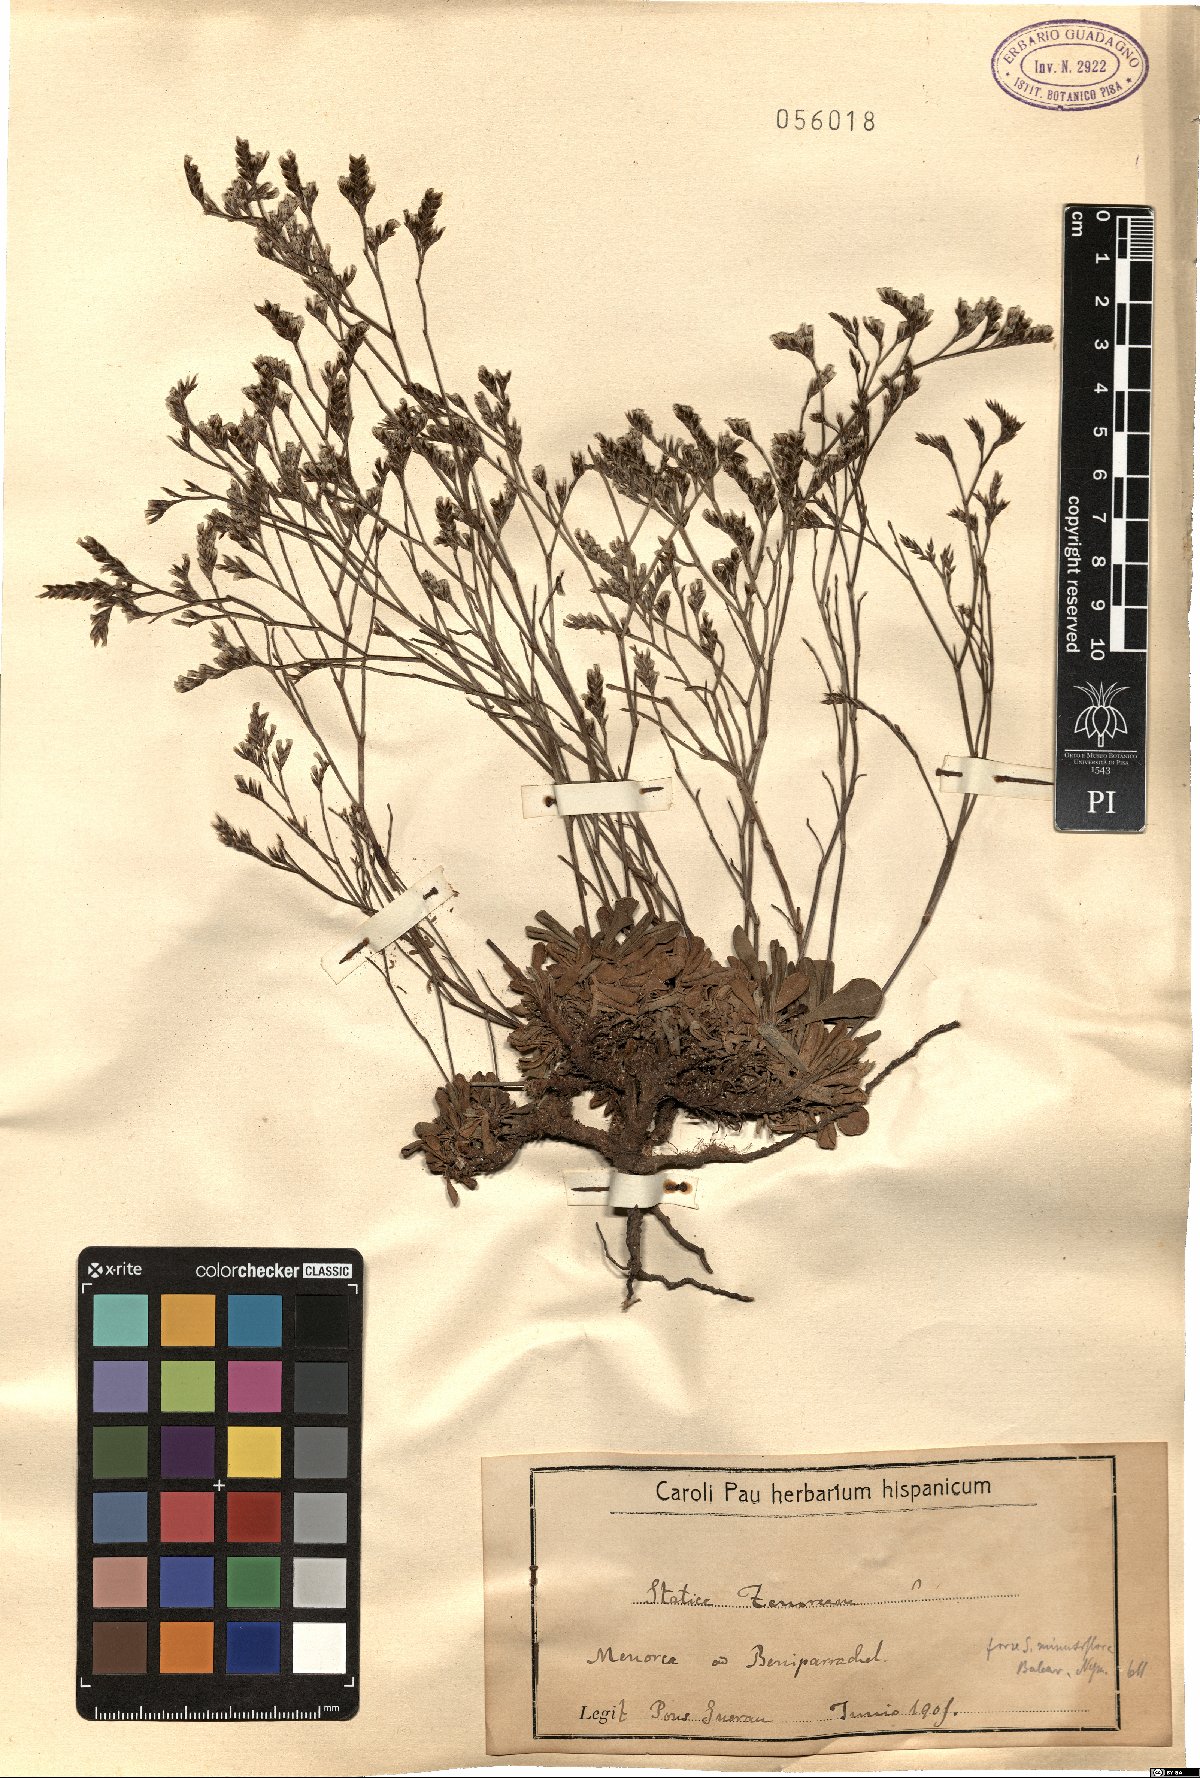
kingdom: Plantae
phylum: Tracheophyta
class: Magnoliopsida
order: Caryophyllales
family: Plumbaginaceae
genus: Limonium
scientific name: Limonium tenoreanum
